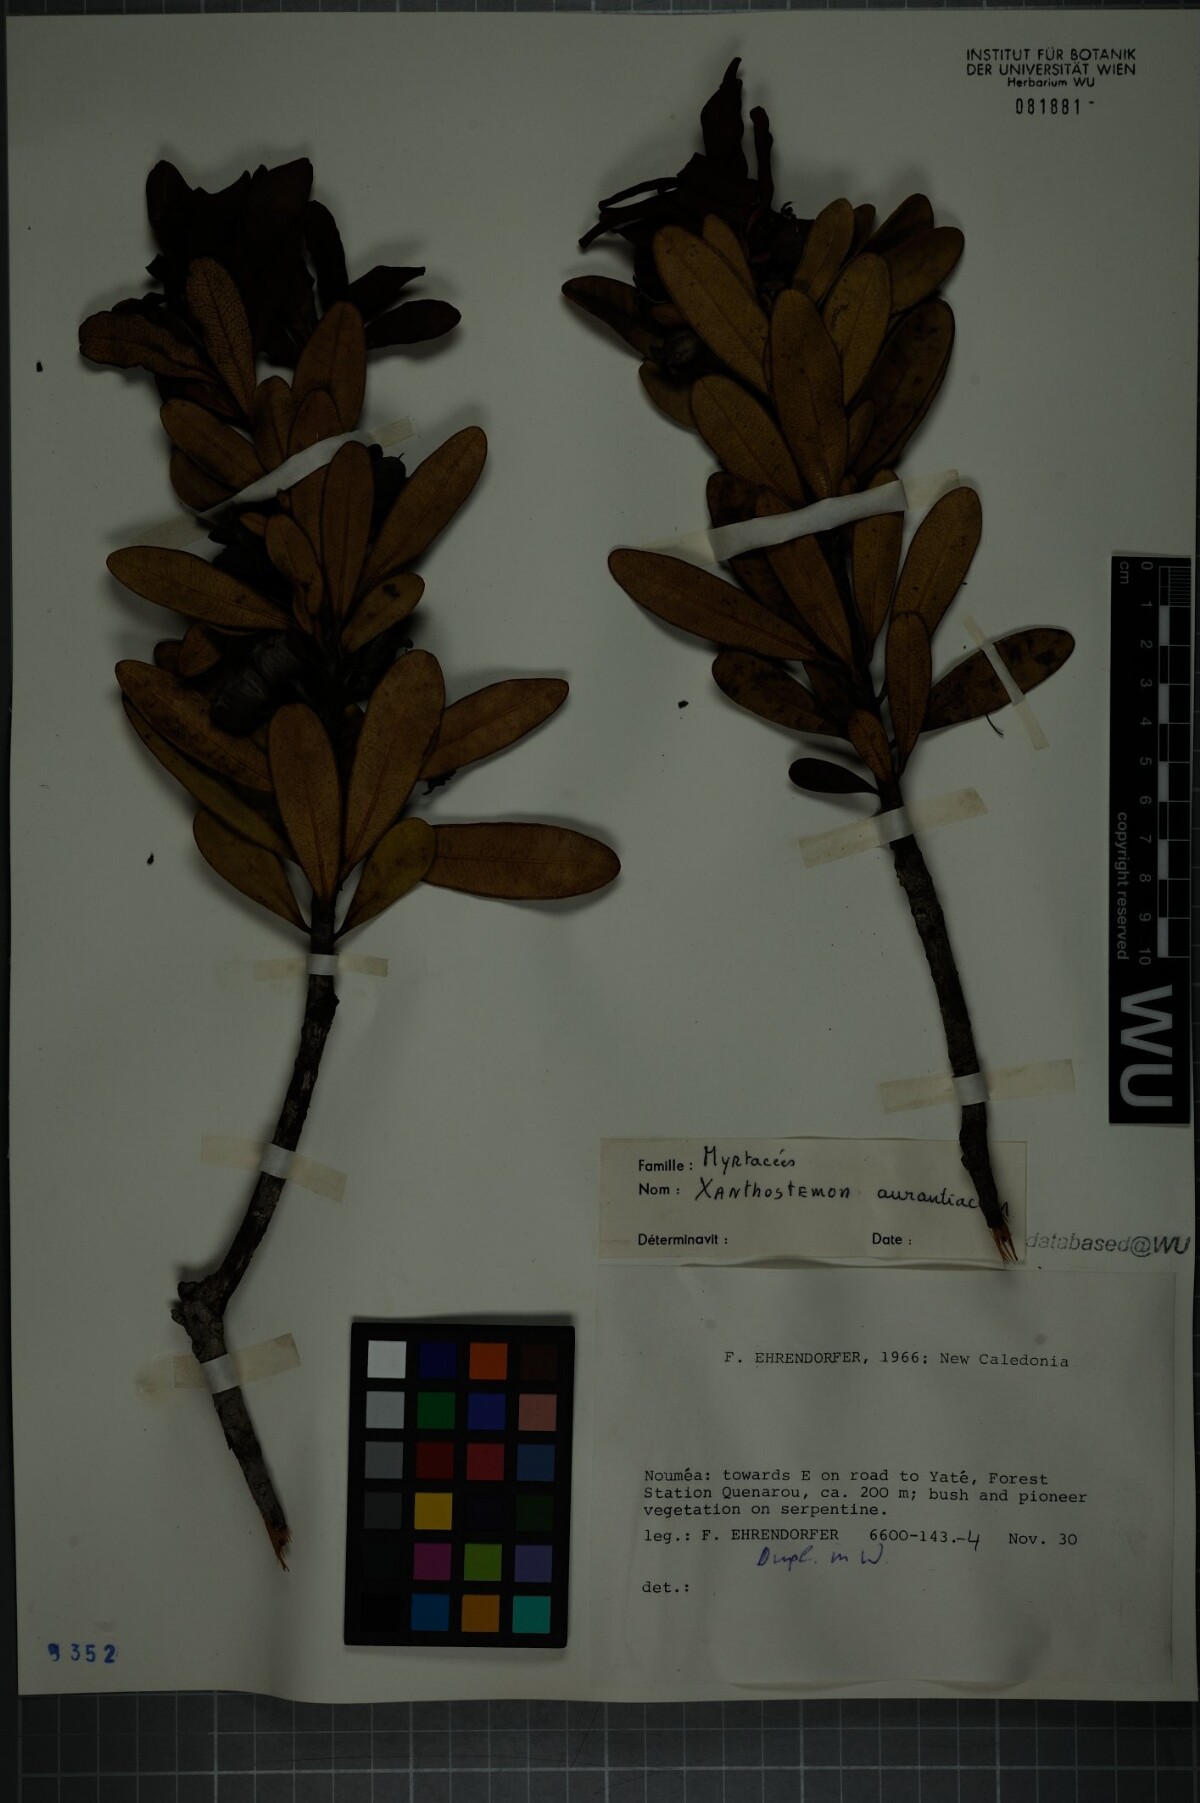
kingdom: Plantae
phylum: Tracheophyta
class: Magnoliopsida
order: Myrtales
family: Myrtaceae
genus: Xanthostemon
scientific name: Xanthostemon aurantiacus
